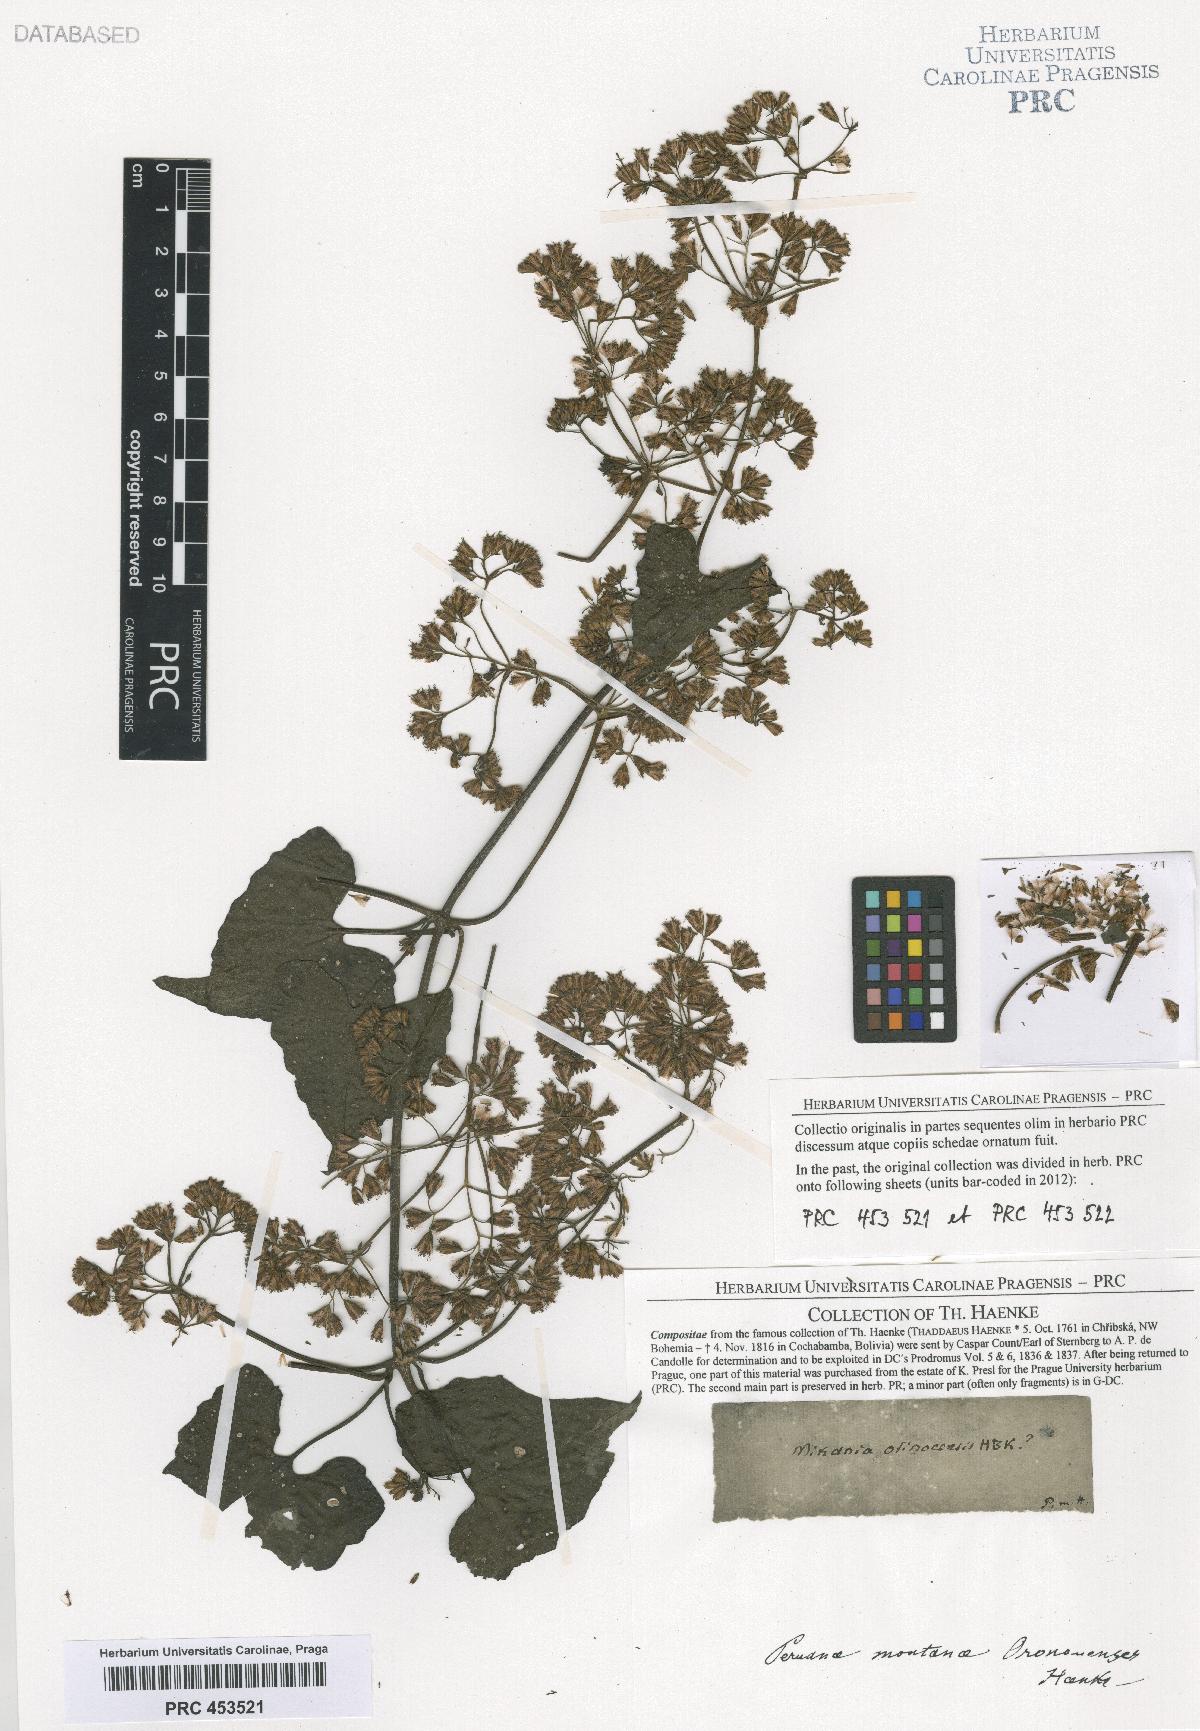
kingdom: Plantae
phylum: Tracheophyta
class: Magnoliopsida
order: Asterales
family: Asteraceae
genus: Mikania
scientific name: Mikania micrantha
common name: Mile-a-minute
